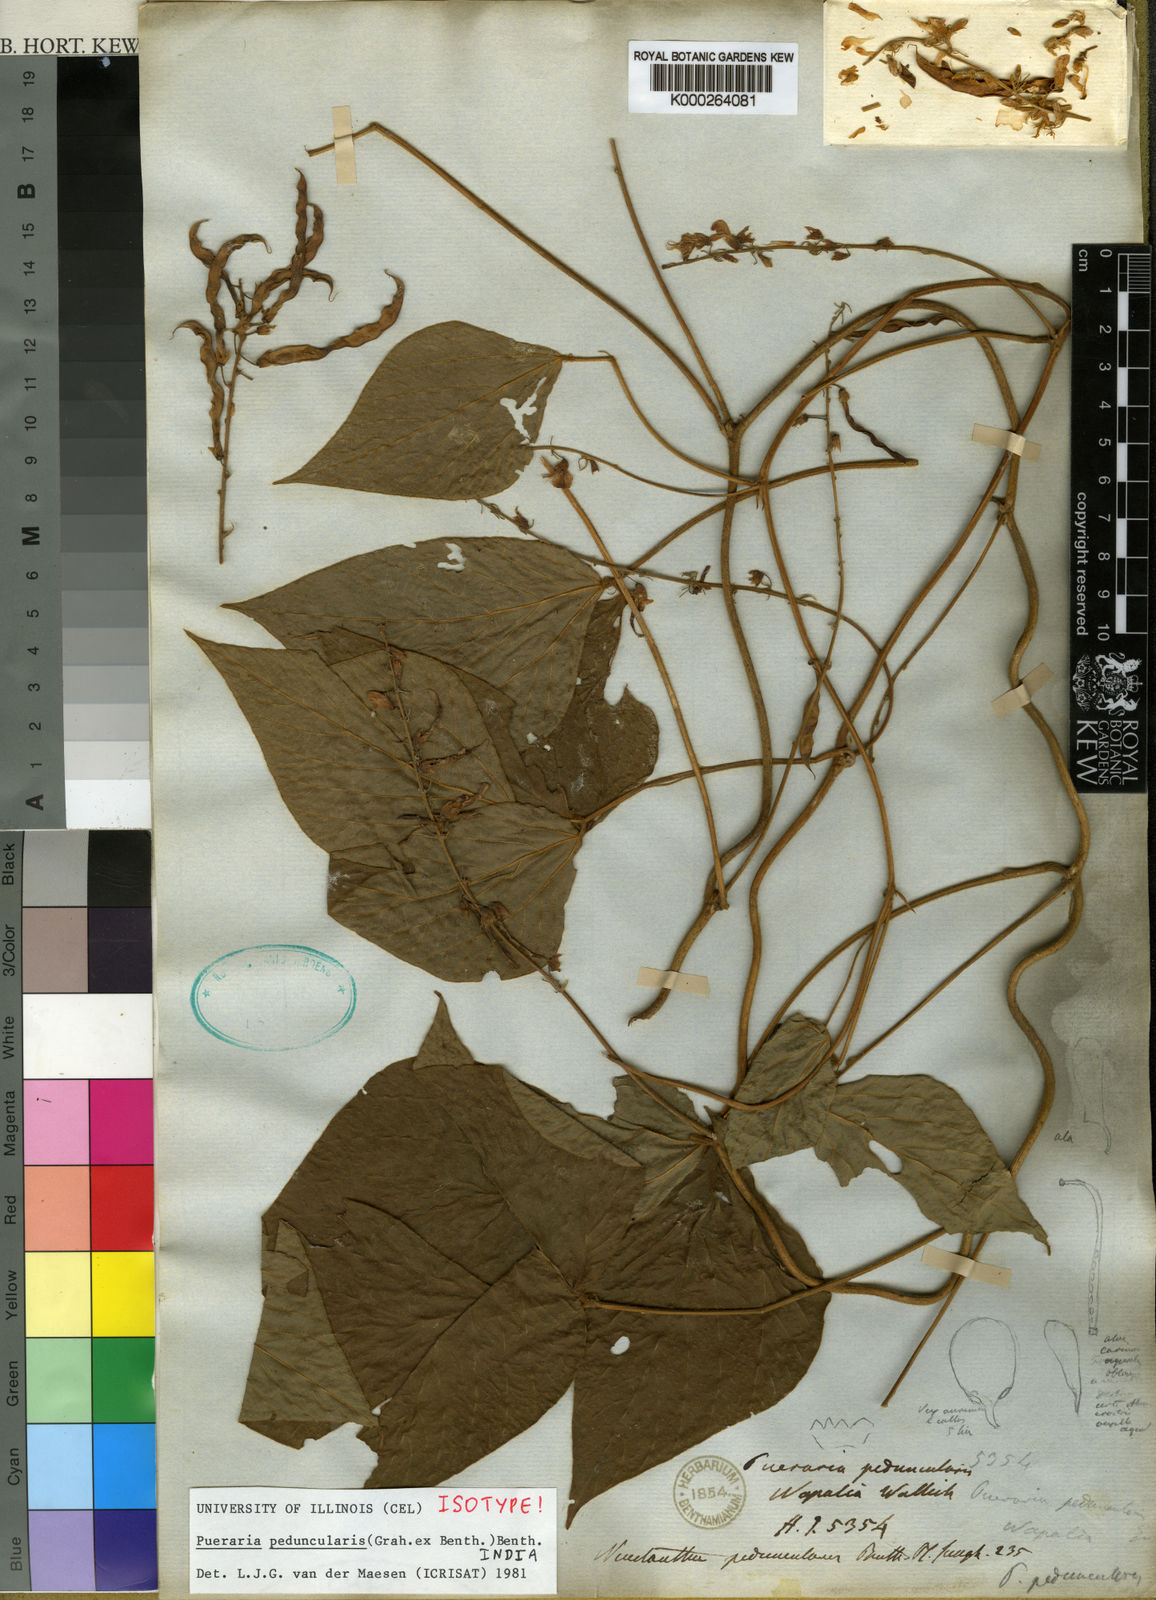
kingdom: Plantae
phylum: Tracheophyta
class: Magnoliopsida
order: Fabales
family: Fabaceae
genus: Toxicopueraria
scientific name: Toxicopueraria peduncularis
